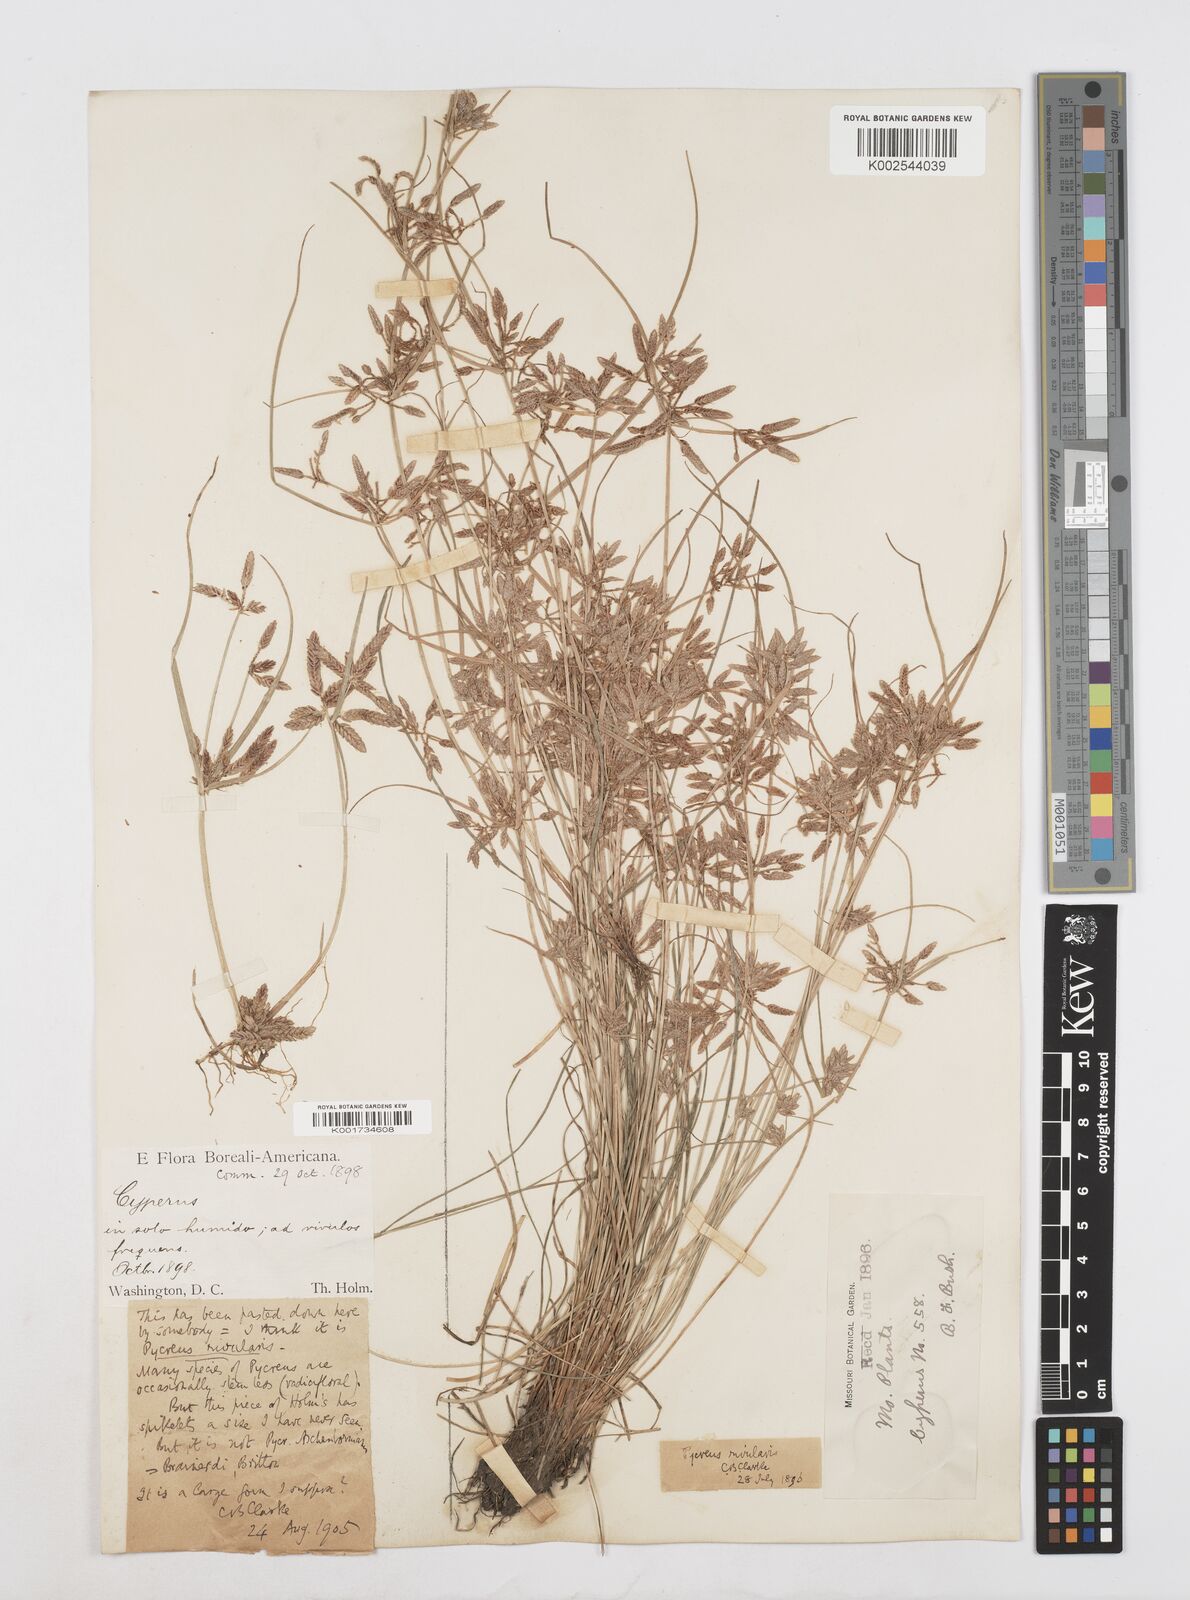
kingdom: Plantae
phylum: Tracheophyta
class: Liliopsida
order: Poales
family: Cyperaceae
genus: Cyperus
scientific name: Cyperus bipartitus
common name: Brook flatsedge
